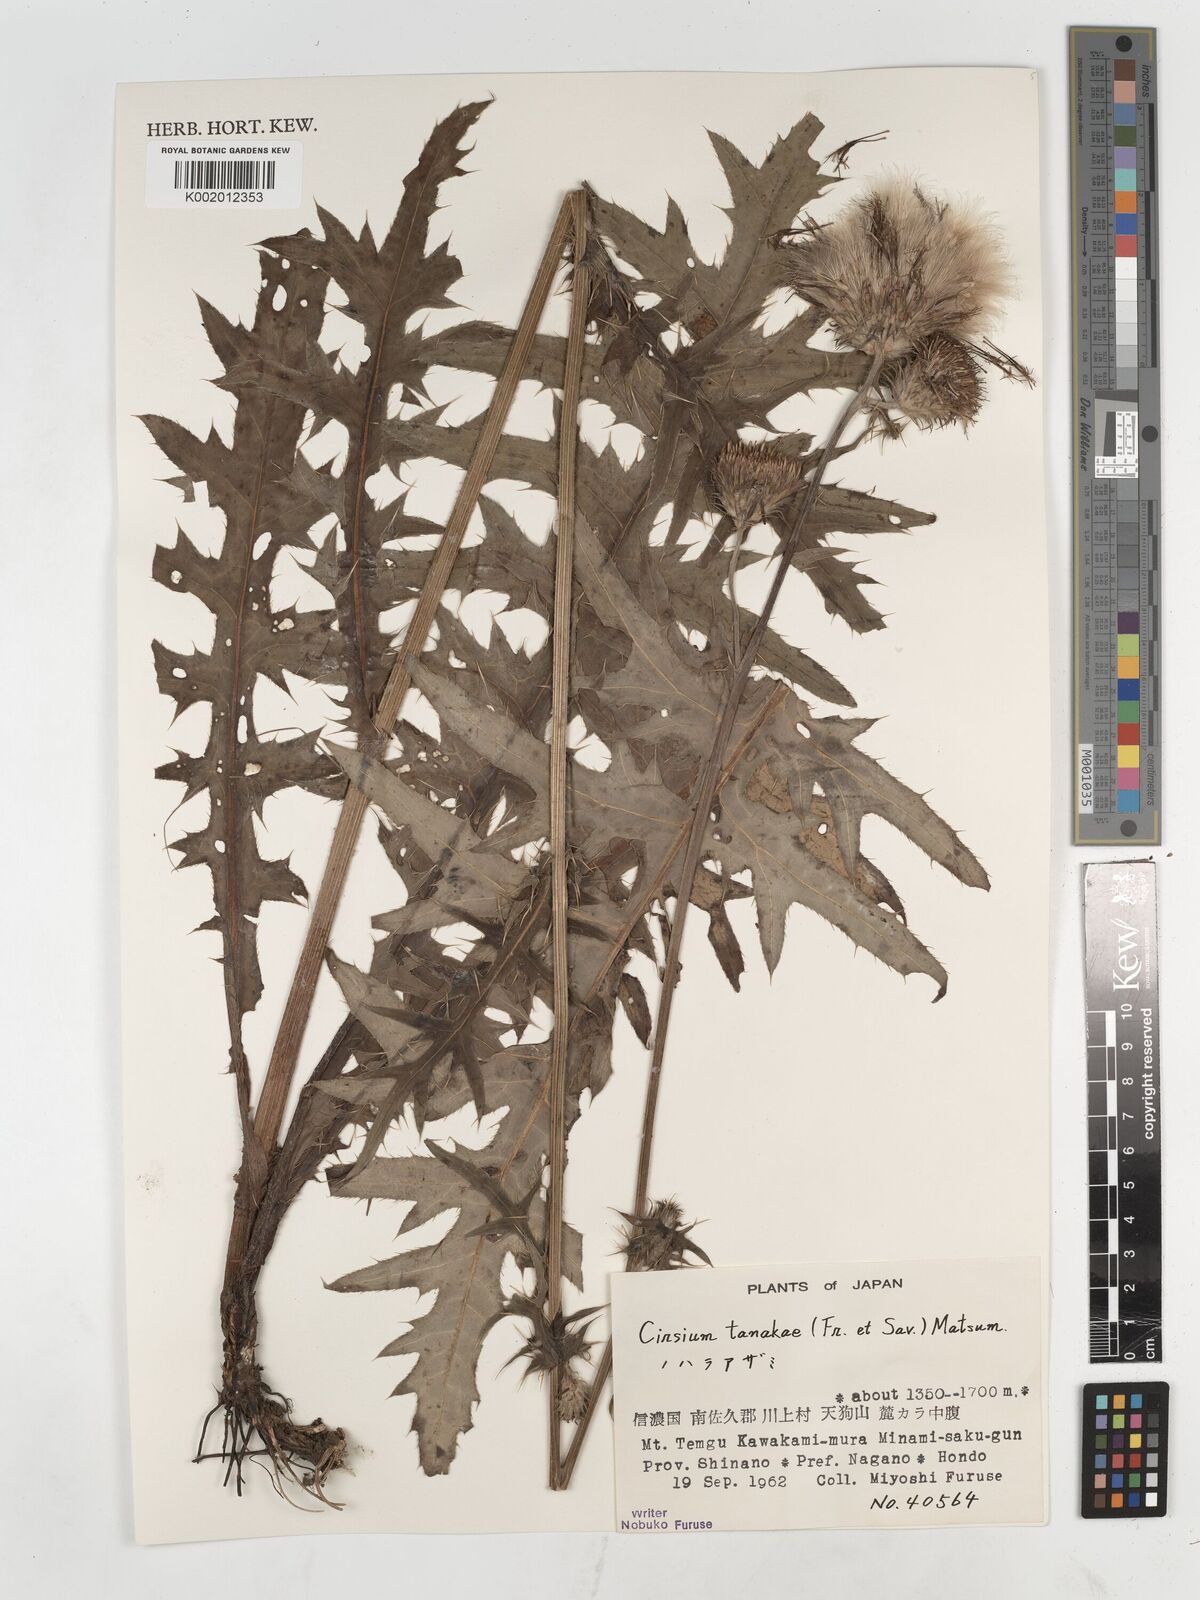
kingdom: Plantae
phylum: Tracheophyta
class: Magnoliopsida
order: Asterales
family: Asteraceae
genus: Cirsium
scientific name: Cirsium nipponicum
